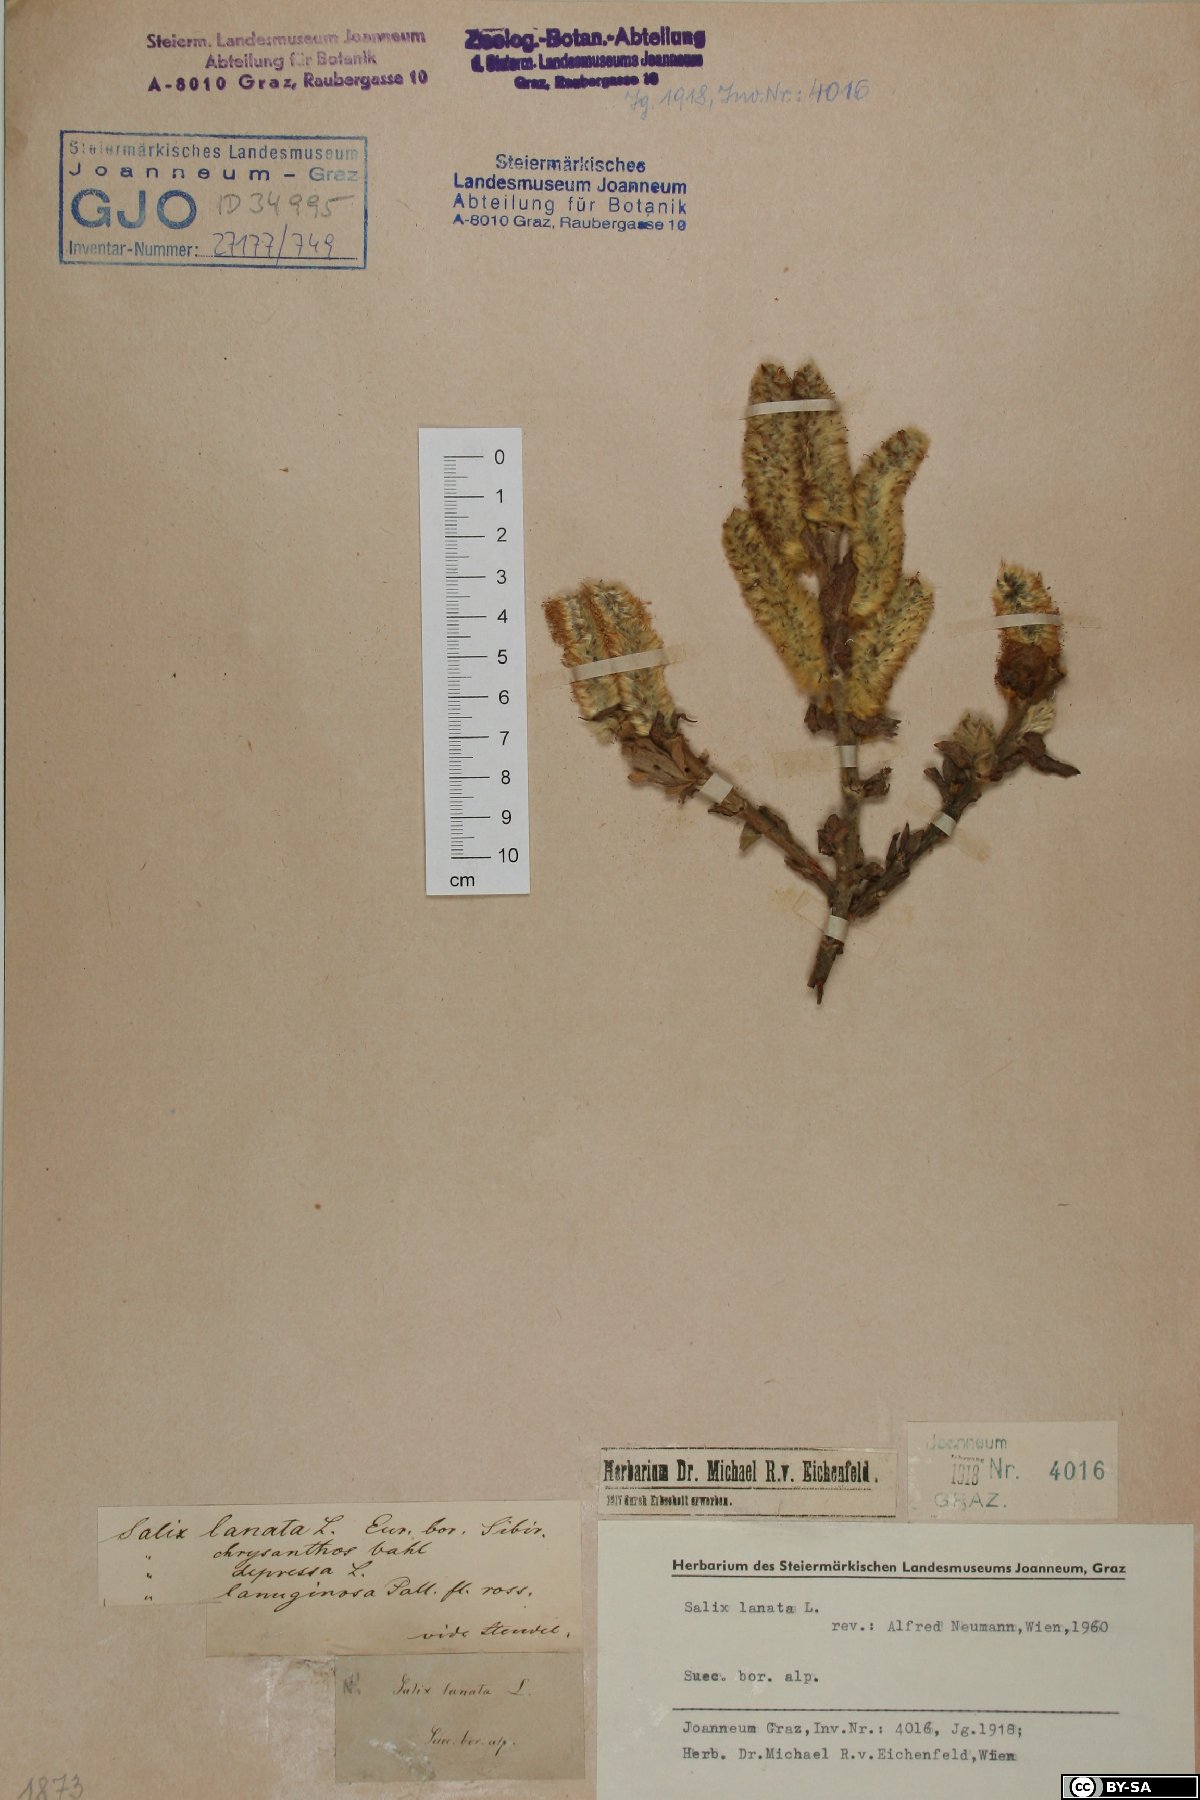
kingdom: Plantae
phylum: Tracheophyta
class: Magnoliopsida
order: Malpighiales
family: Salicaceae
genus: Salix
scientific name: Salix lanata
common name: Woolly willow
